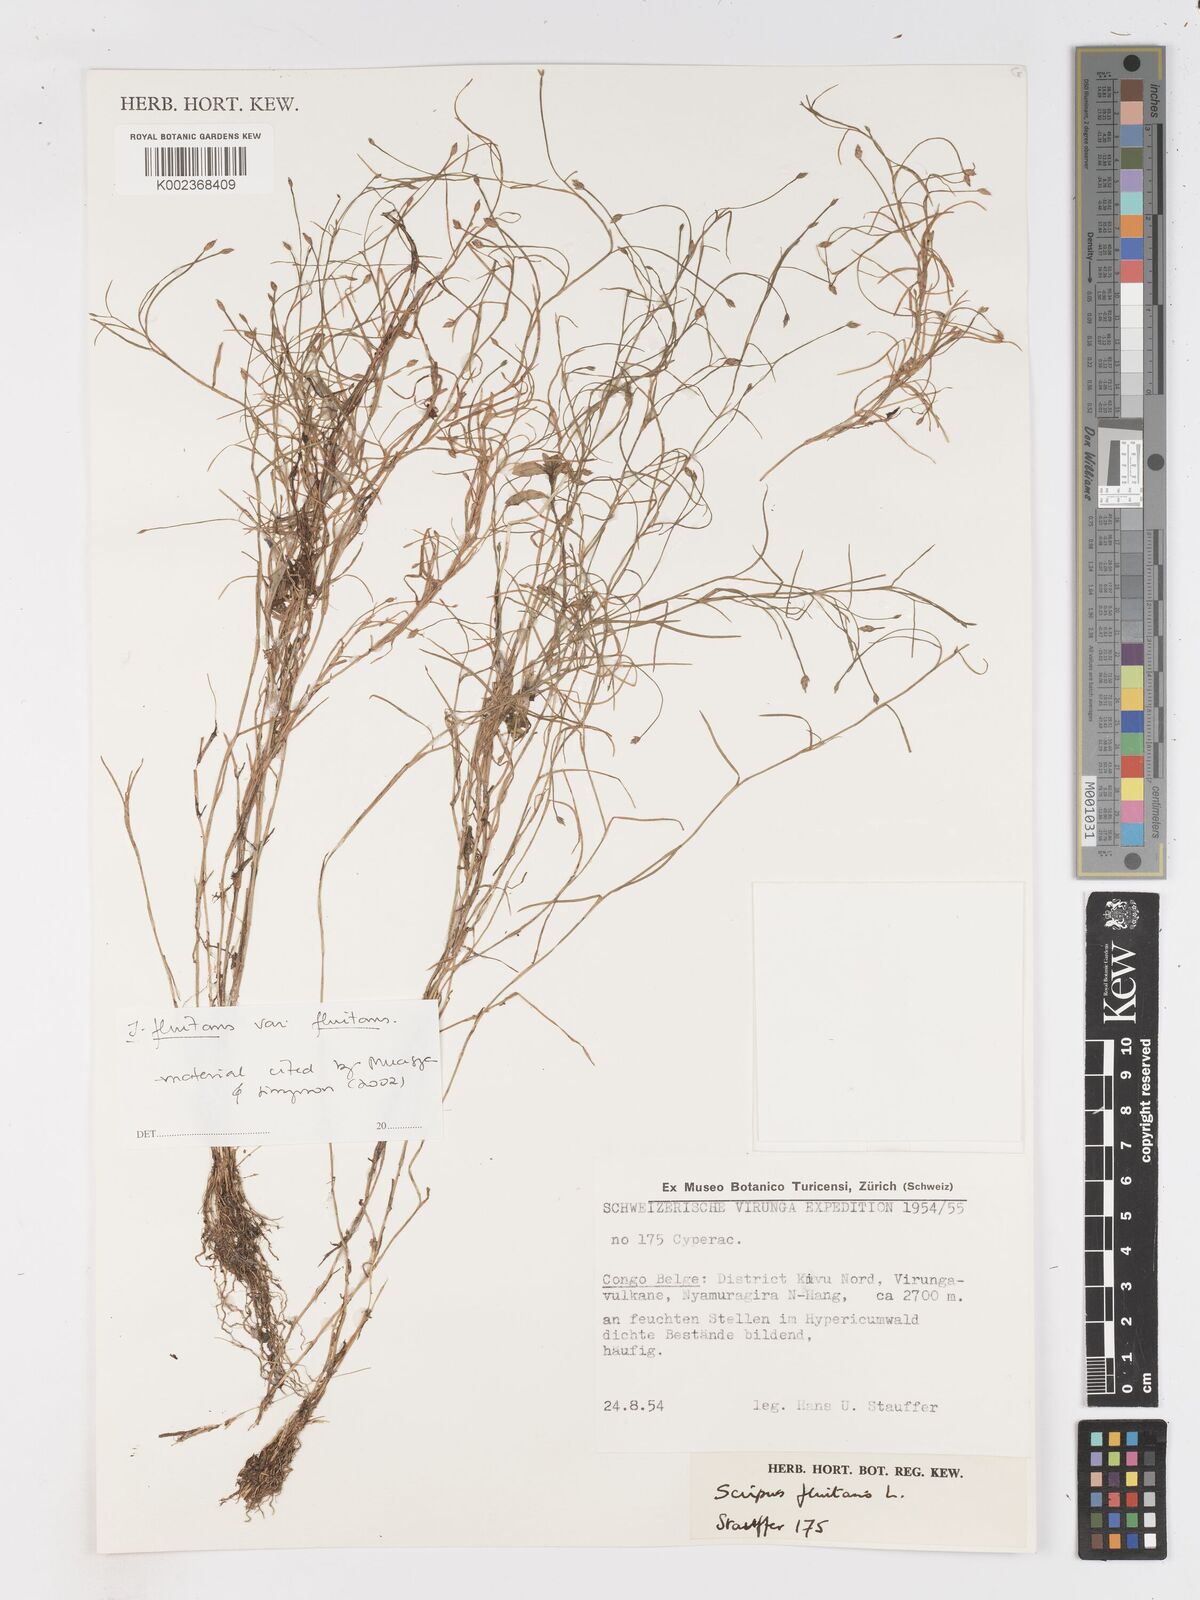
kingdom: Plantae
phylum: Tracheophyta
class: Liliopsida
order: Poales
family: Cyperaceae
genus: Isolepis
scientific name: Isolepis fluitans
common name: Floating club-rush
